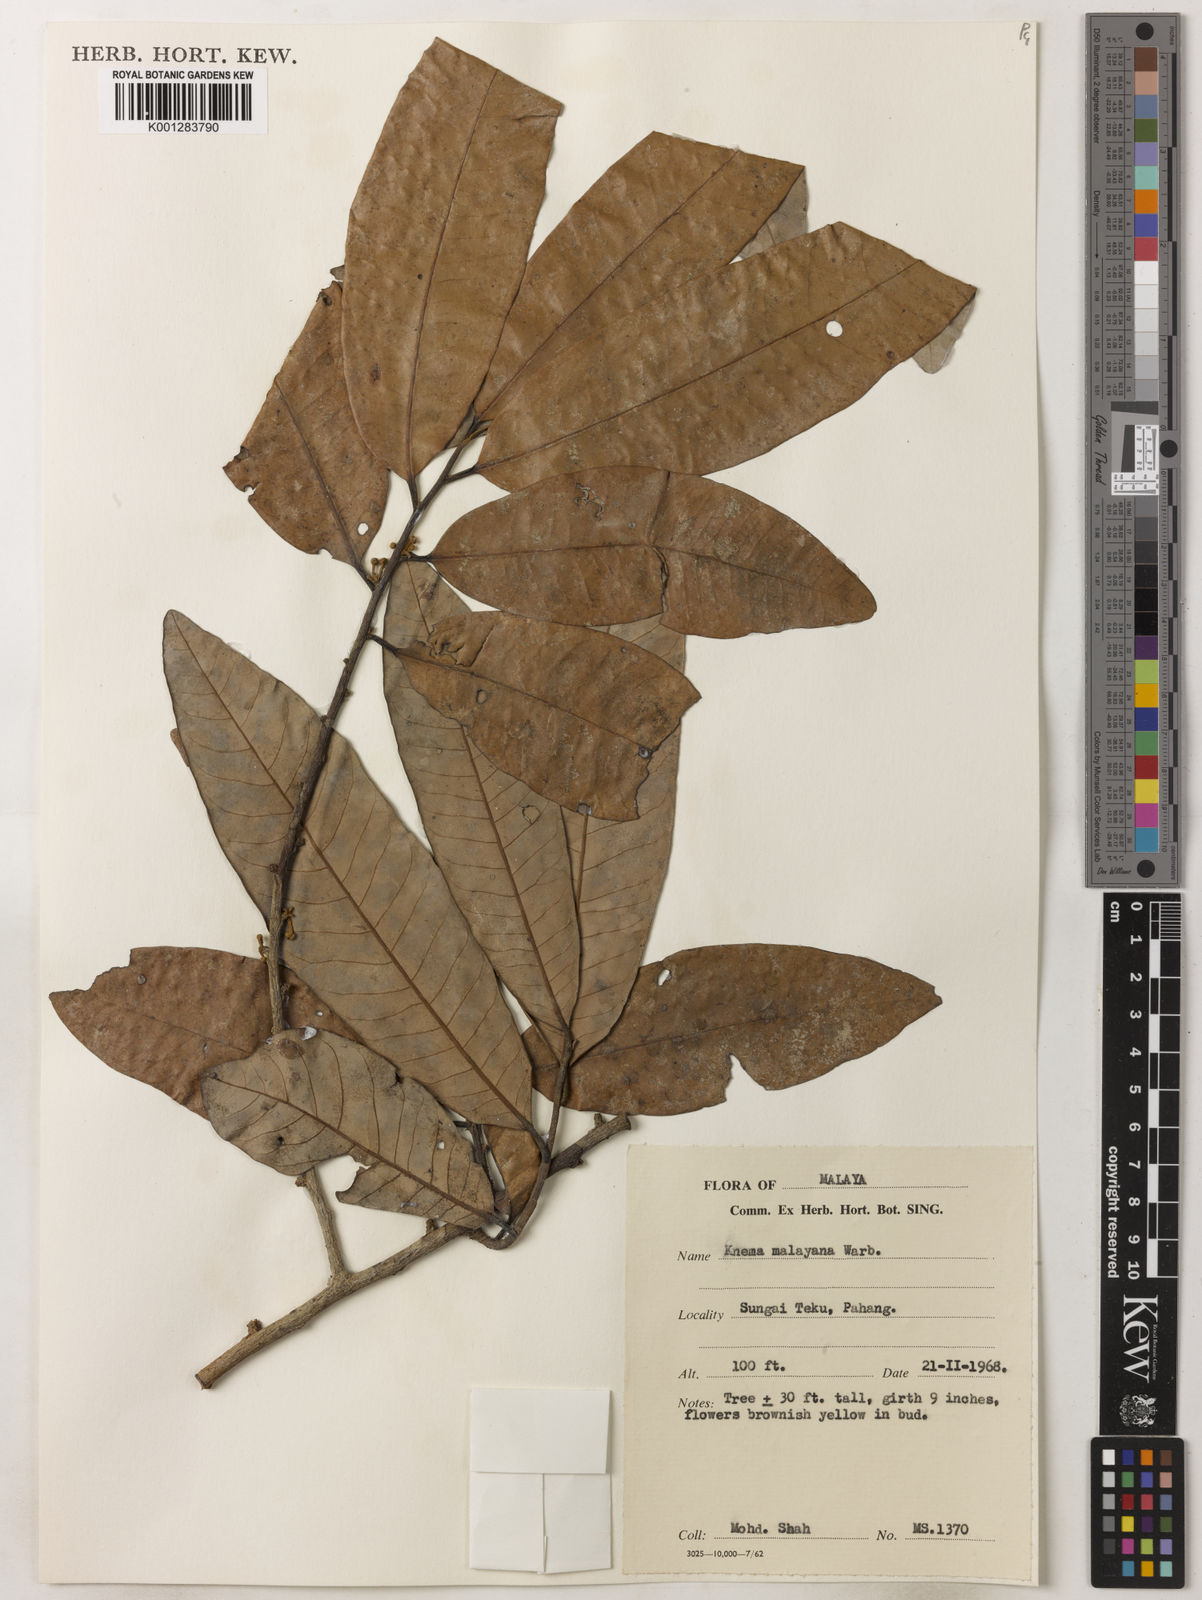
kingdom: Plantae
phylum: Tracheophyta
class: Magnoliopsida
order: Magnoliales
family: Myristicaceae
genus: Knema
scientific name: Knema malayana
